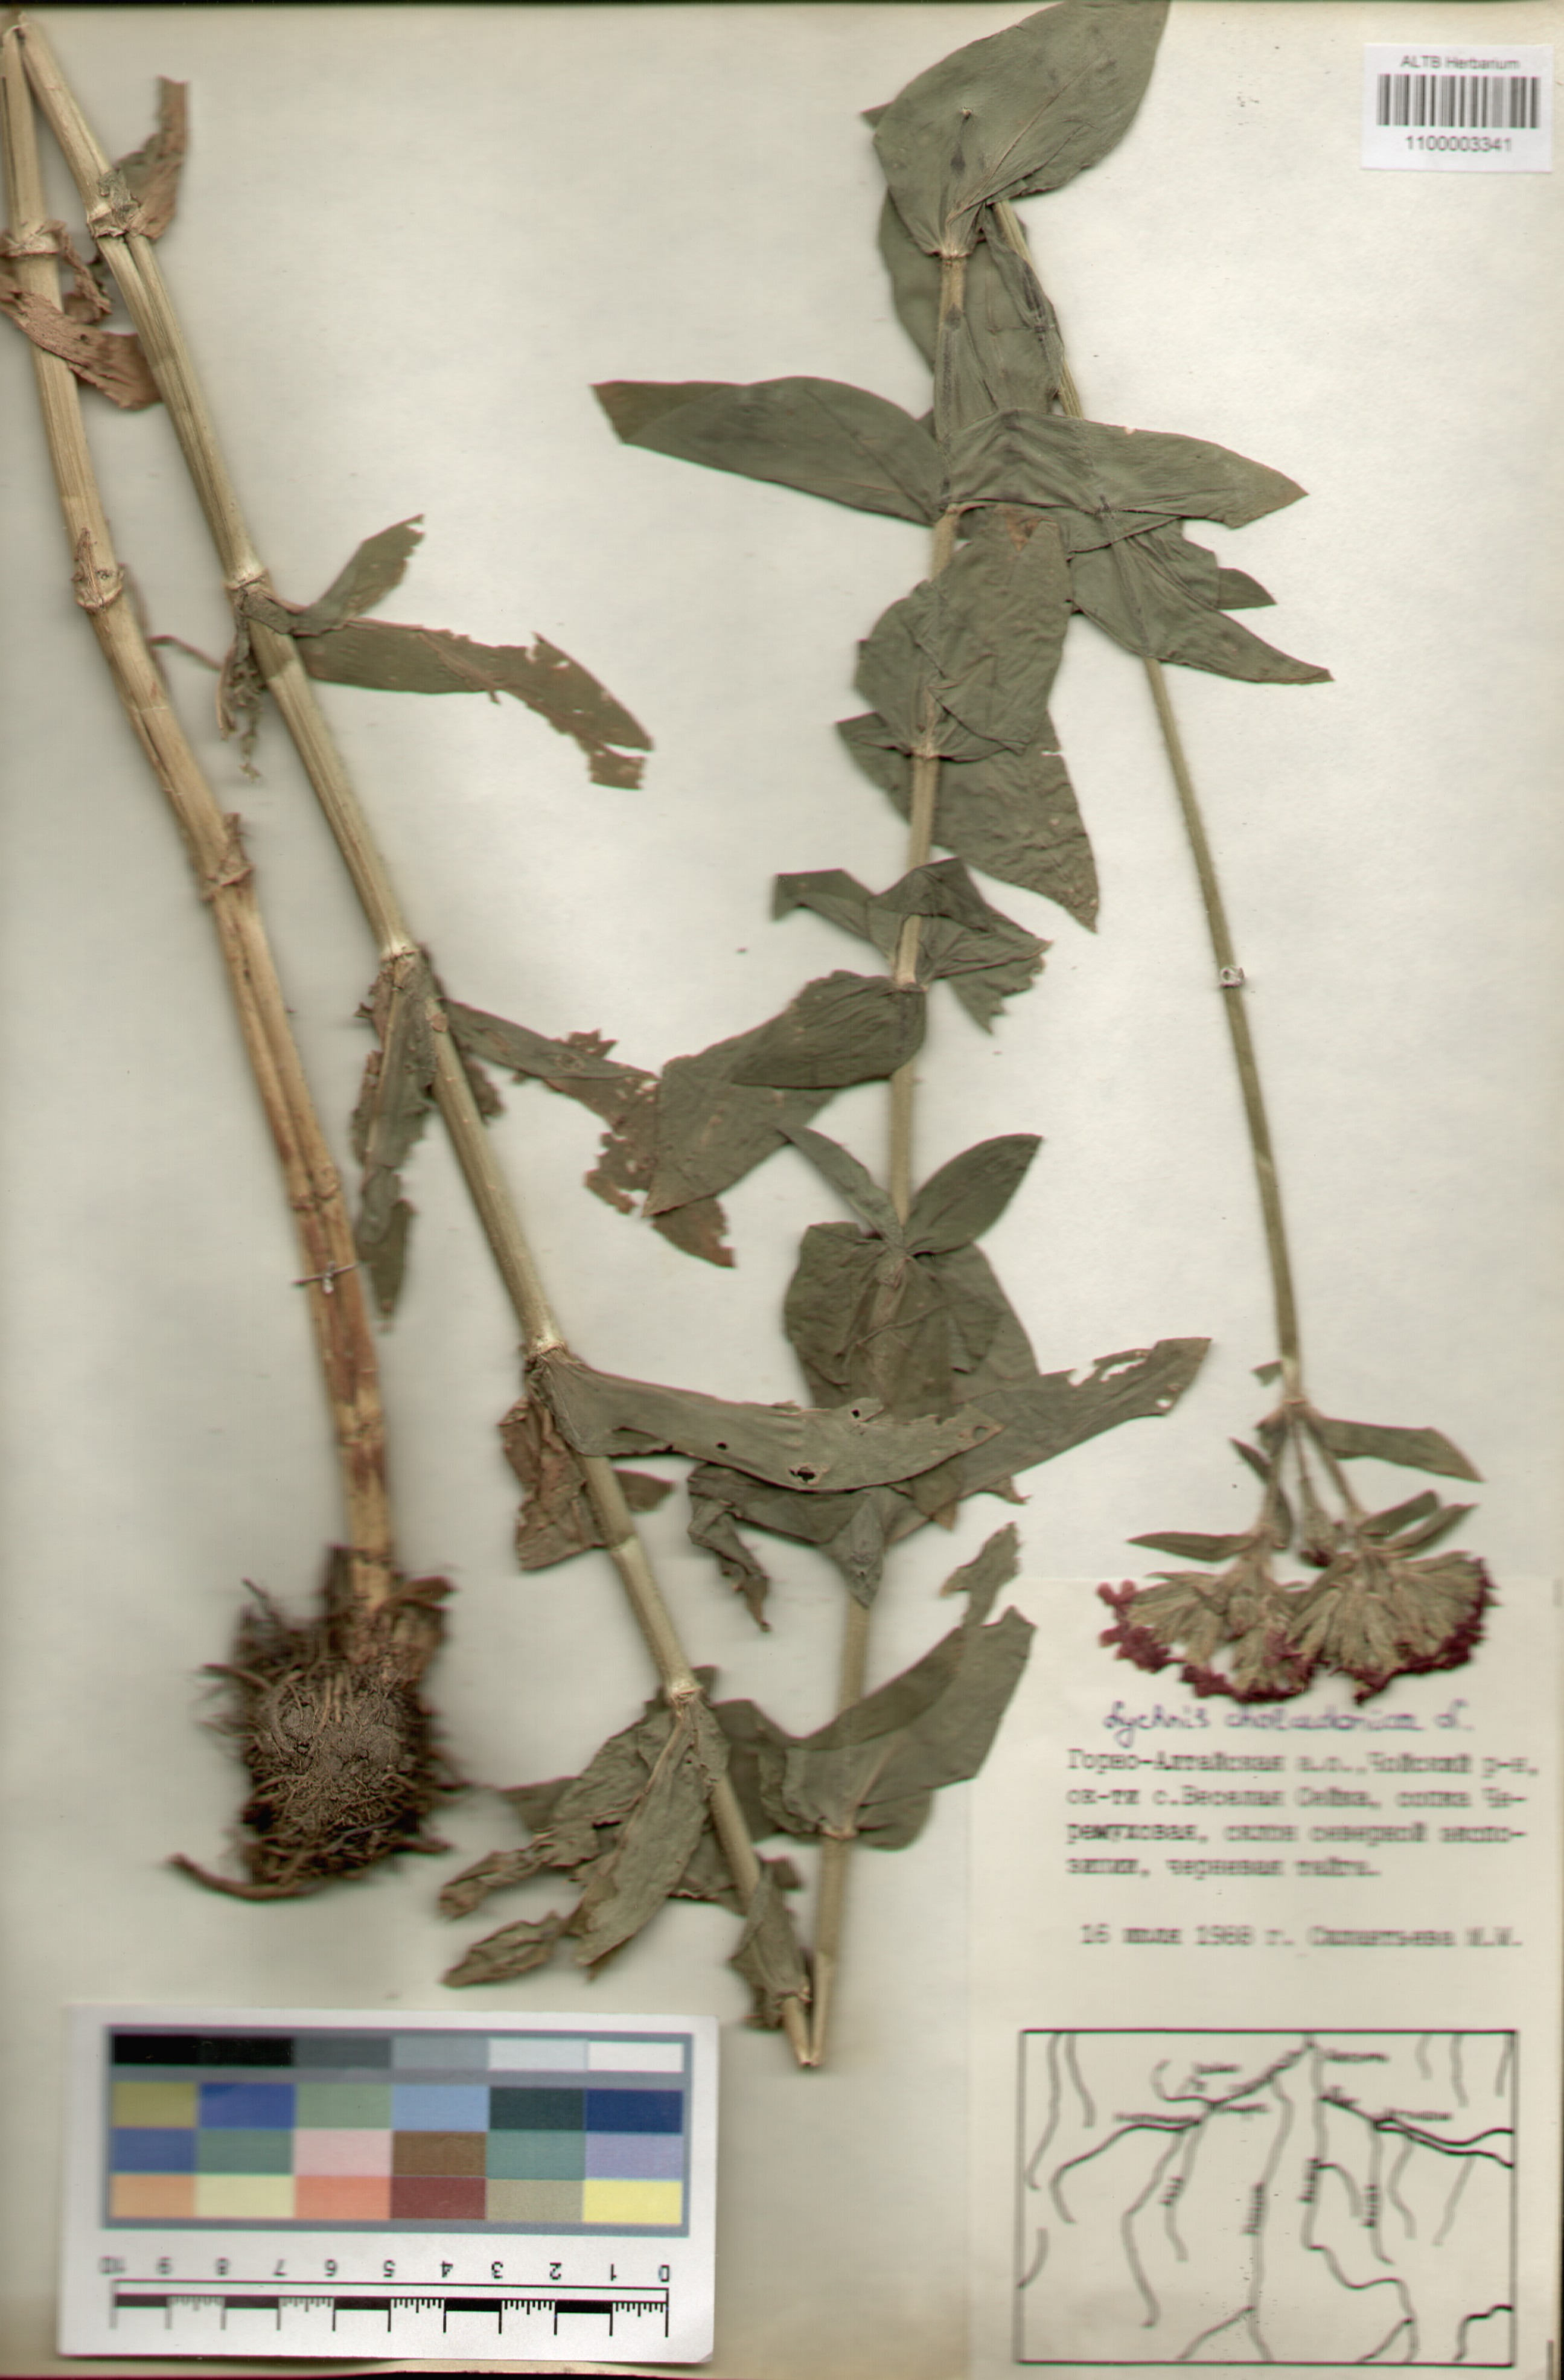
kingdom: Plantae
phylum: Tracheophyta
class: Magnoliopsida
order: Caryophyllales
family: Caryophyllaceae
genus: Silene
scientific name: Silene chalcedonica
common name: Maltese-cross
